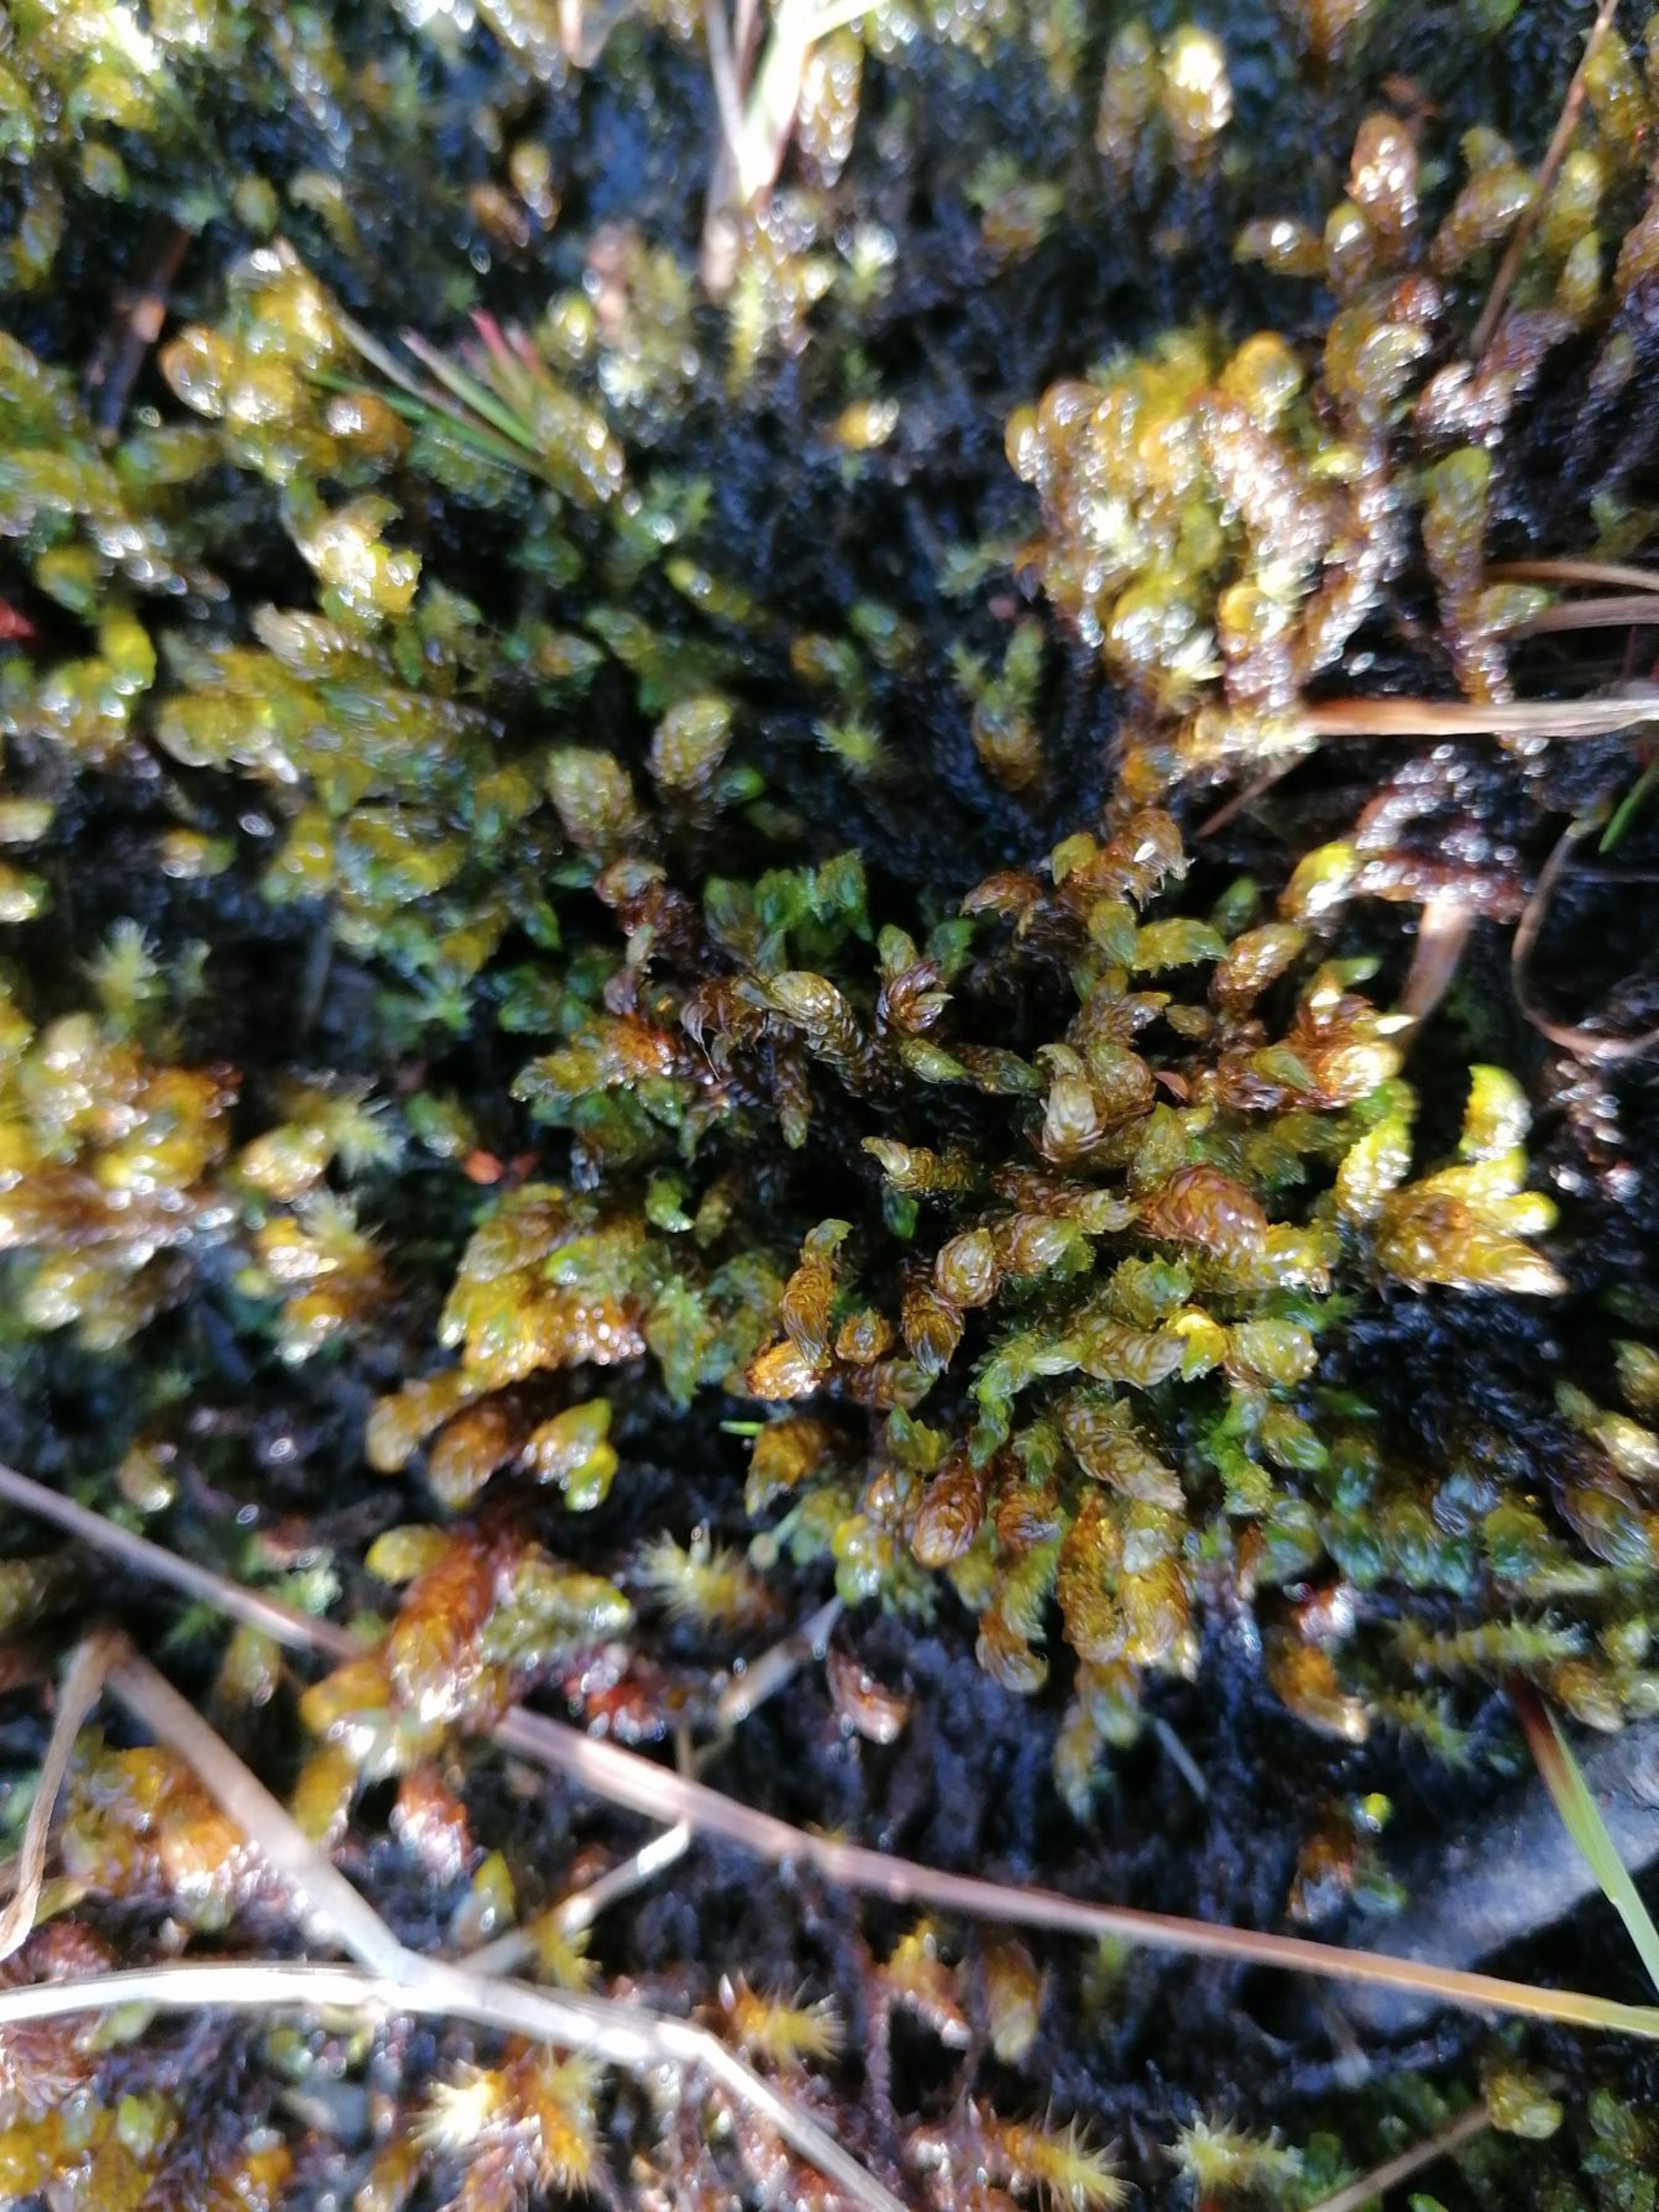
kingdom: Plantae
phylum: Bryophyta
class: Bryopsida
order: Hypnales
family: Scorpidiaceae
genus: Scorpidium
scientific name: Scorpidium scorpioides
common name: Stor skorpionmos
